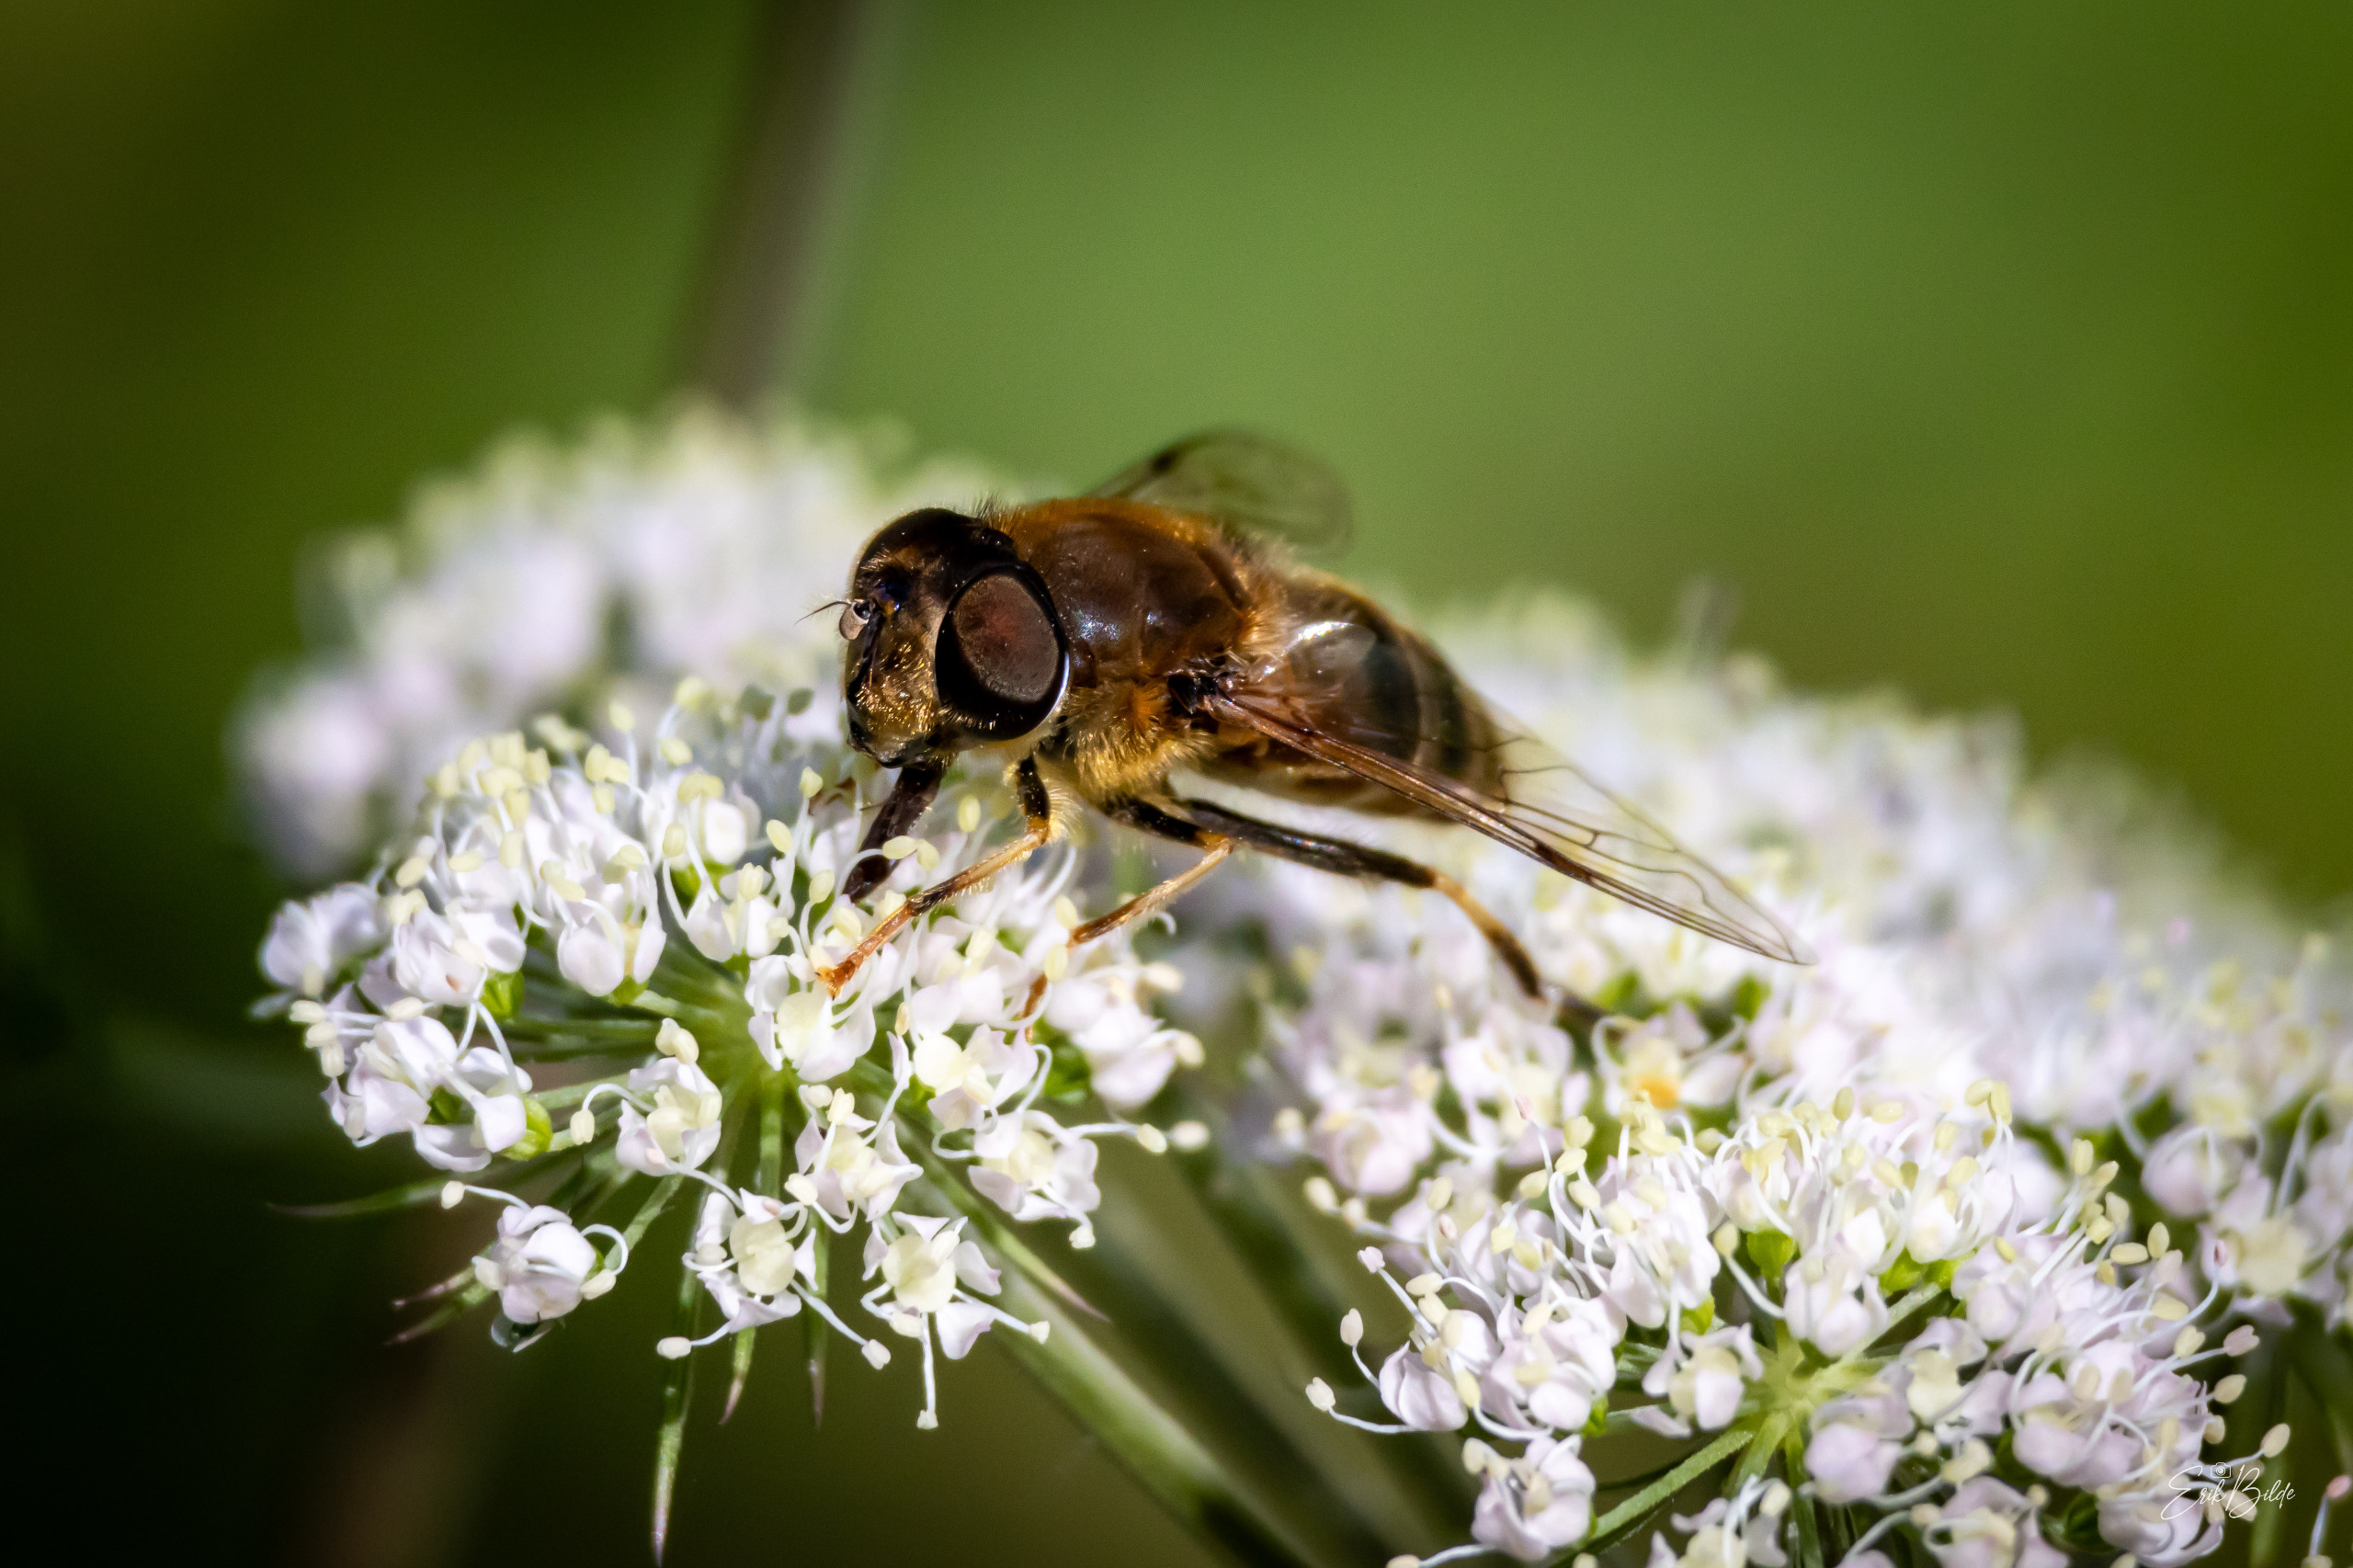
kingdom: Animalia
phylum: Arthropoda
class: Insecta
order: Diptera
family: Syrphidae
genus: Eristalis
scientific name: Eristalis pertinax
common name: Gulfodet dyndflue
